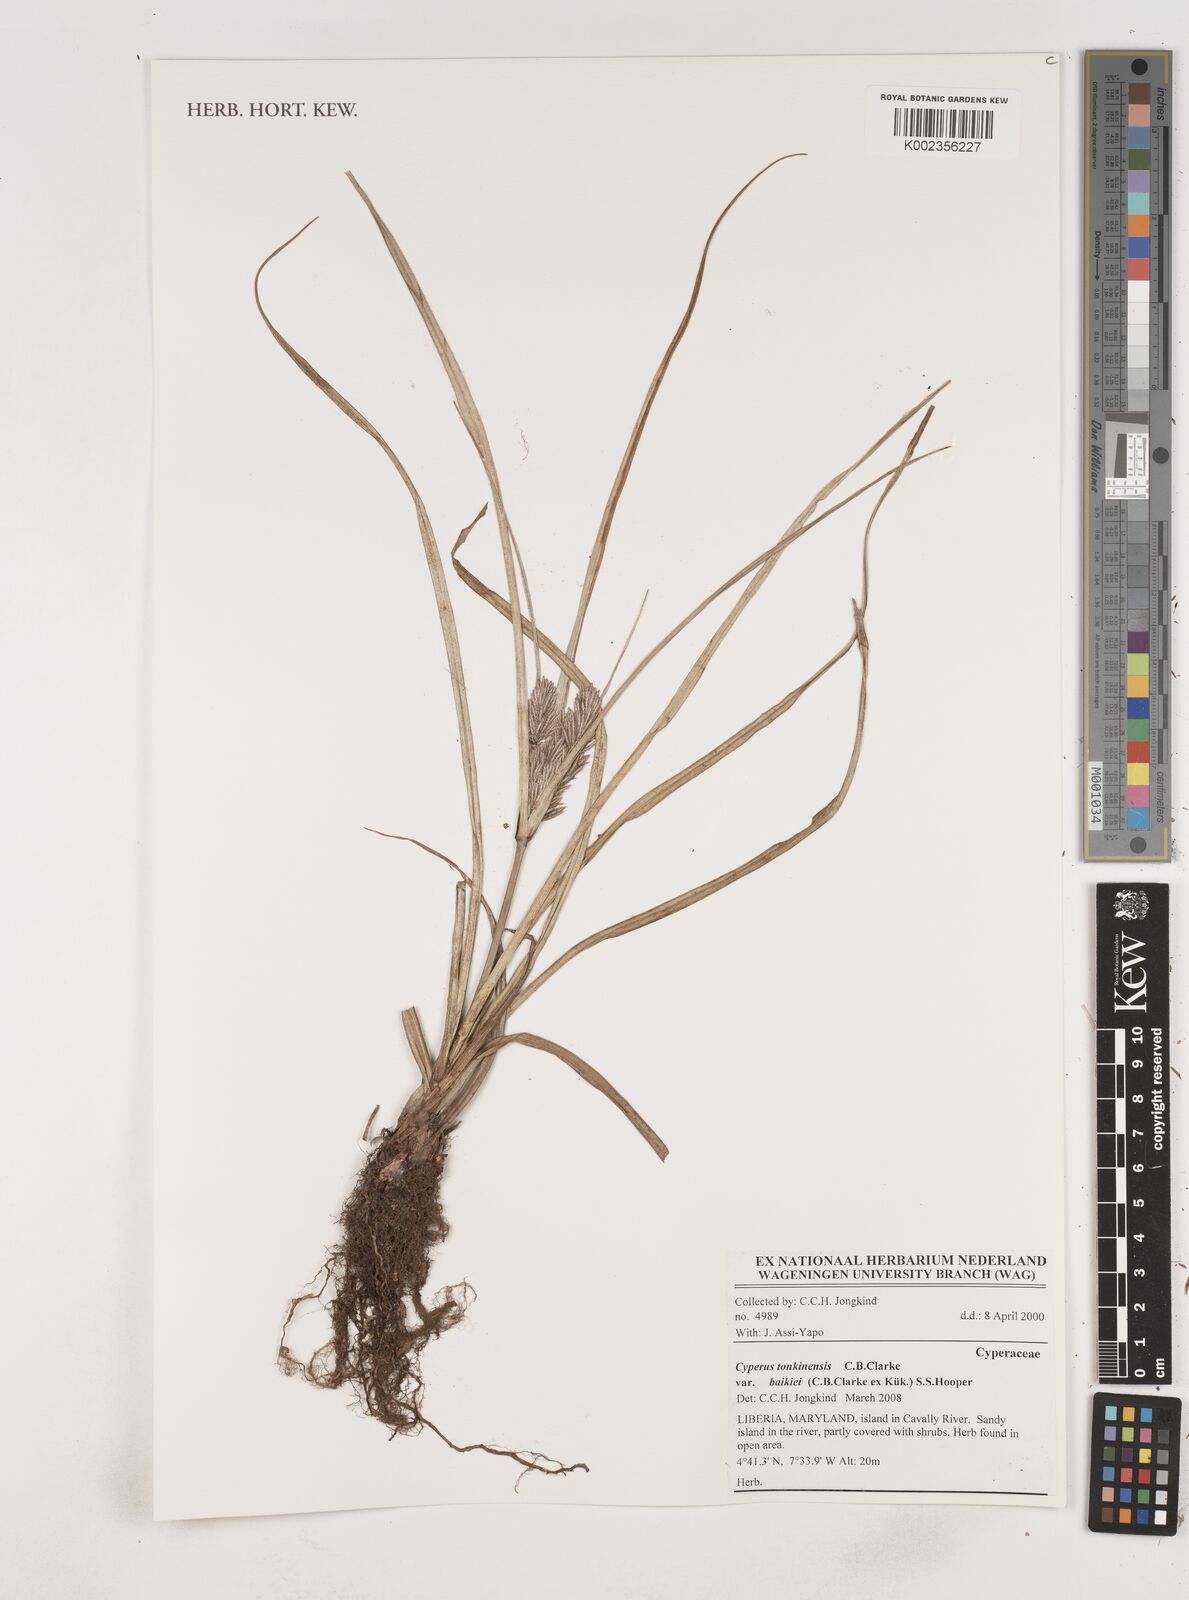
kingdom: Plantae
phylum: Tracheophyta
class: Liliopsida
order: Poales
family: Cyperaceae
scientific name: Cyperaceae
